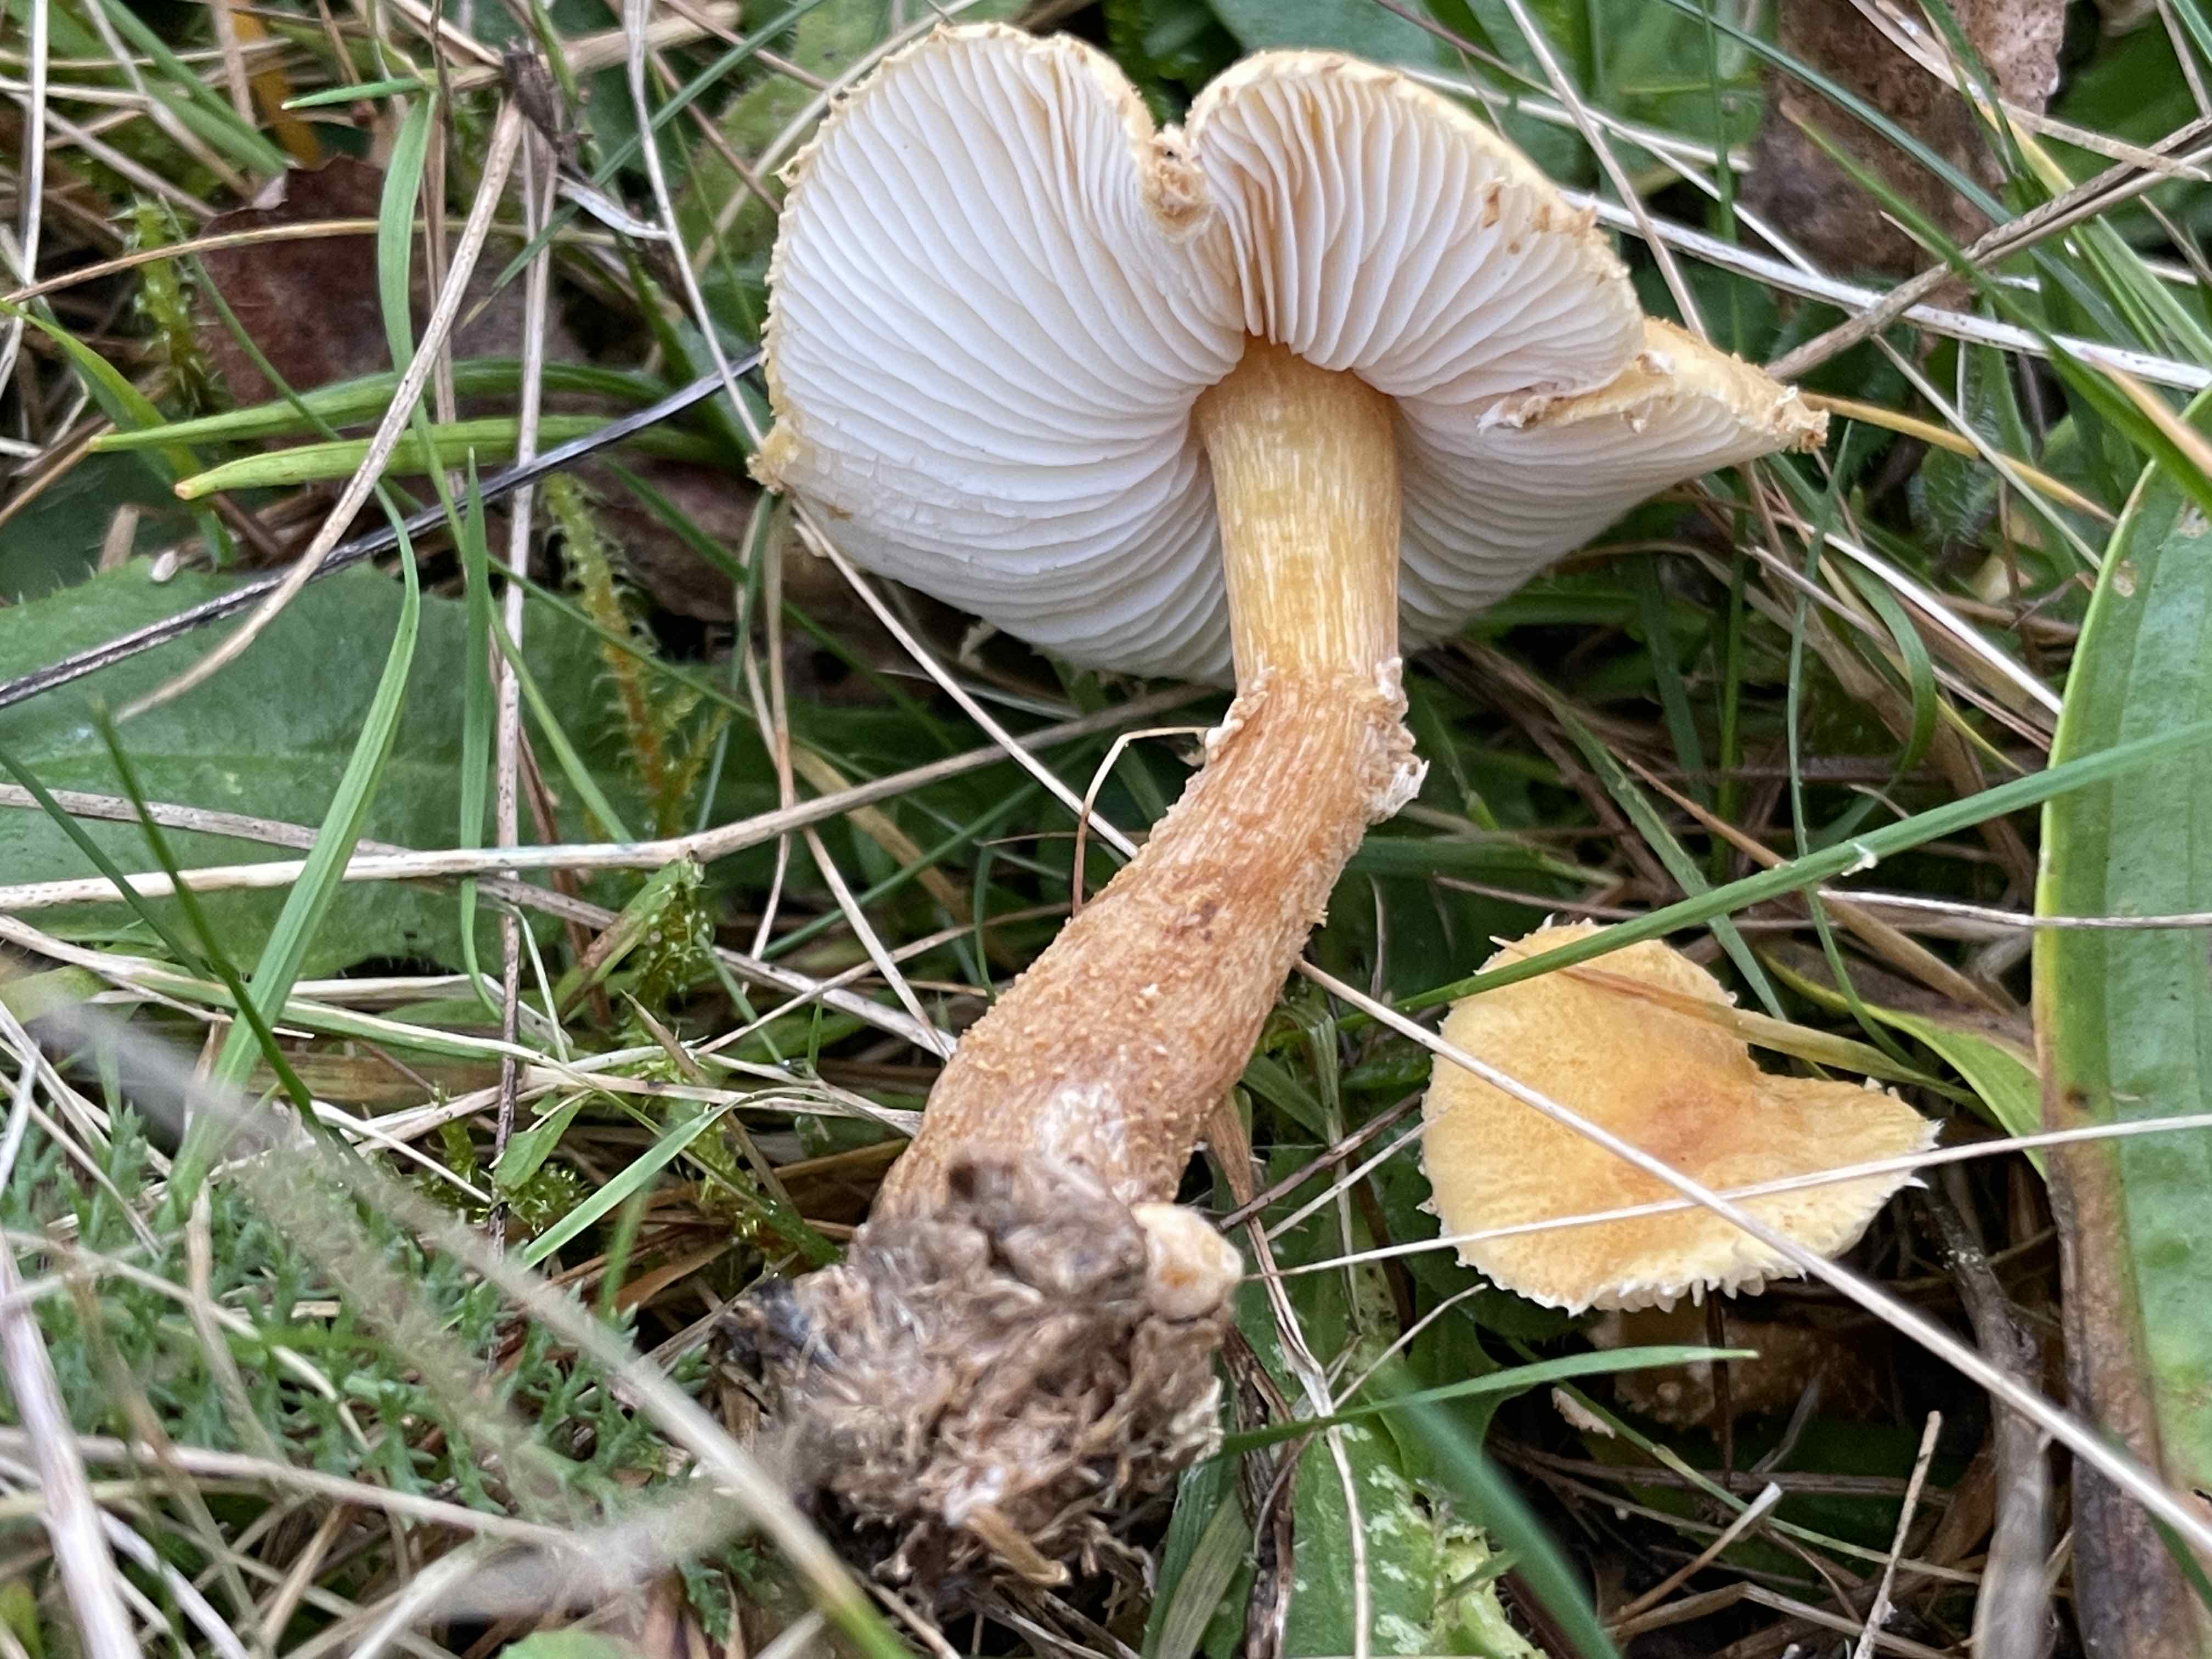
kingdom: Fungi
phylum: Basidiomycota
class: Agaricomycetes
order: Agaricales
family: Tricholomataceae
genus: Cystoderma
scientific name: Cystoderma amianthinum
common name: okkergul grynhat
